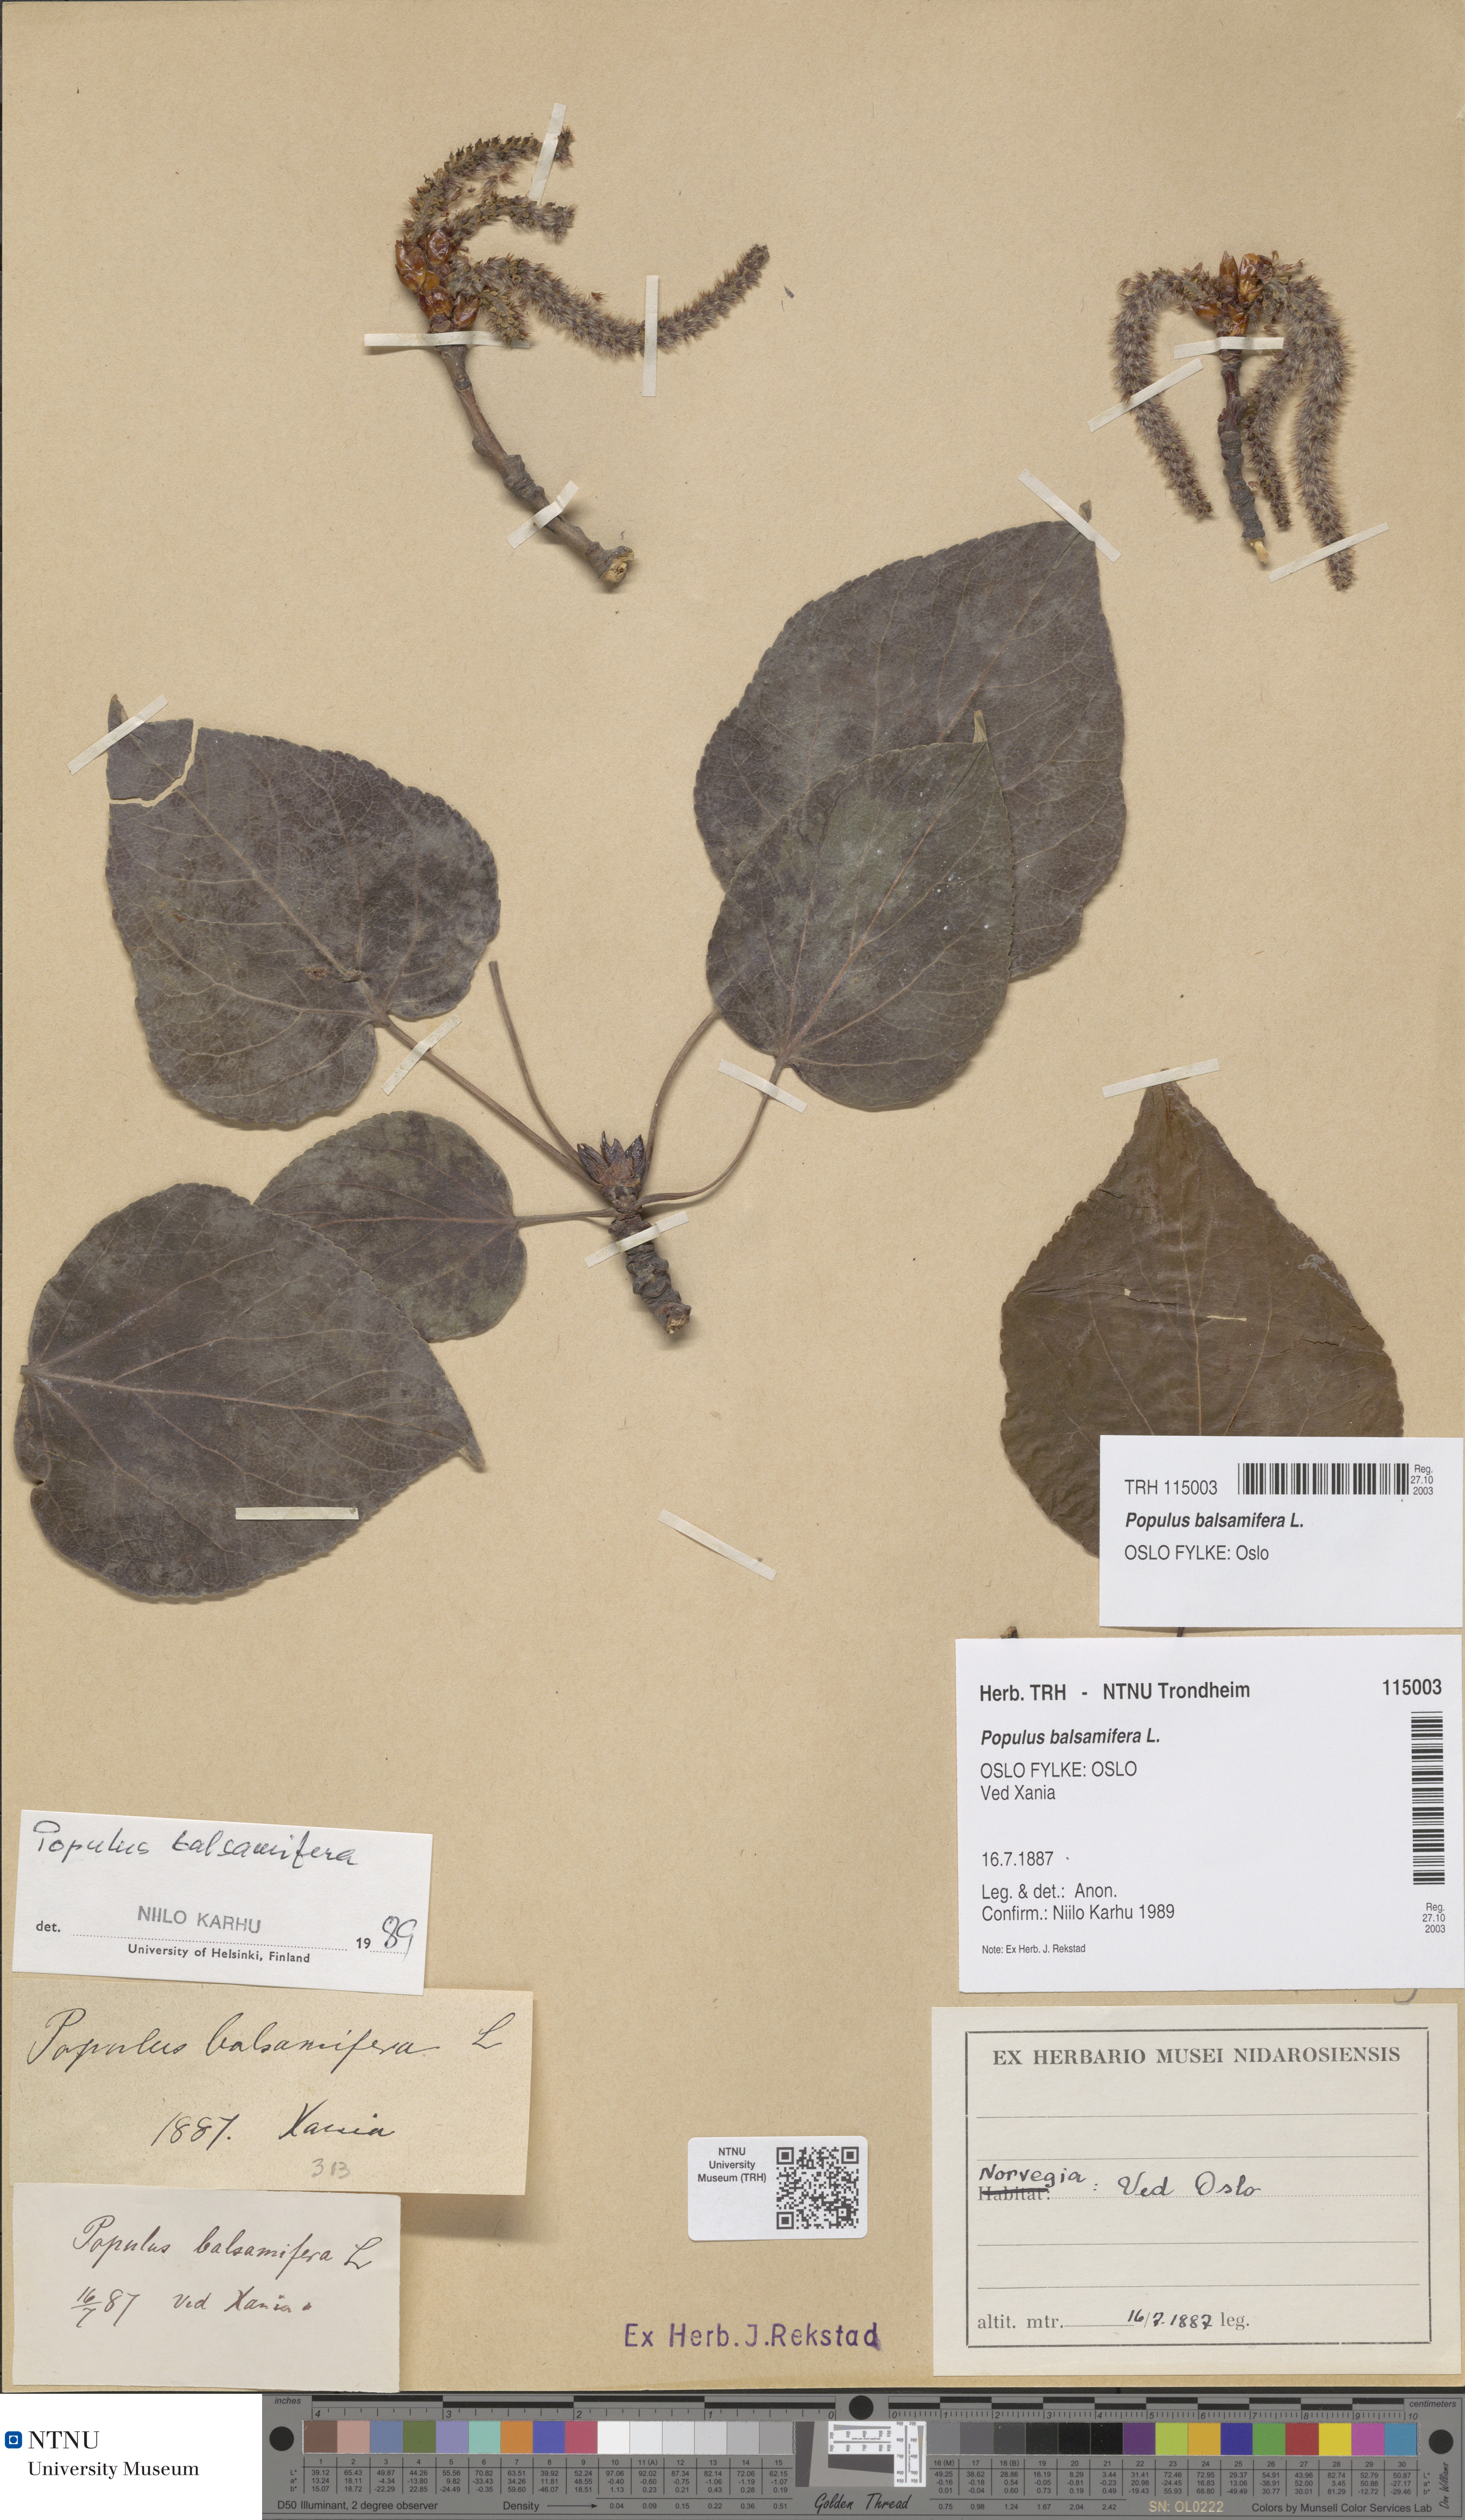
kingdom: Plantae
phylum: Tracheophyta
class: Magnoliopsida
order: Malpighiales
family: Salicaceae
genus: Populus
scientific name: Populus balsamifera
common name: Balsam poplar
